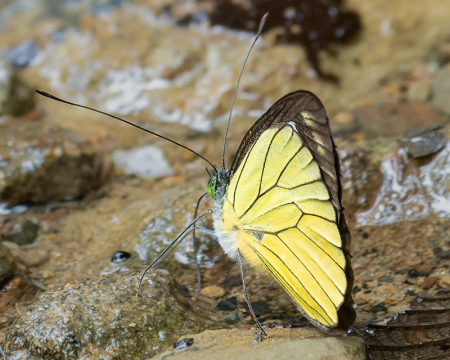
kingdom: Animalia
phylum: Arthropoda
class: Insecta
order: Lepidoptera
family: Pieridae
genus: Leptophobia
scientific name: Leptophobia caesia
